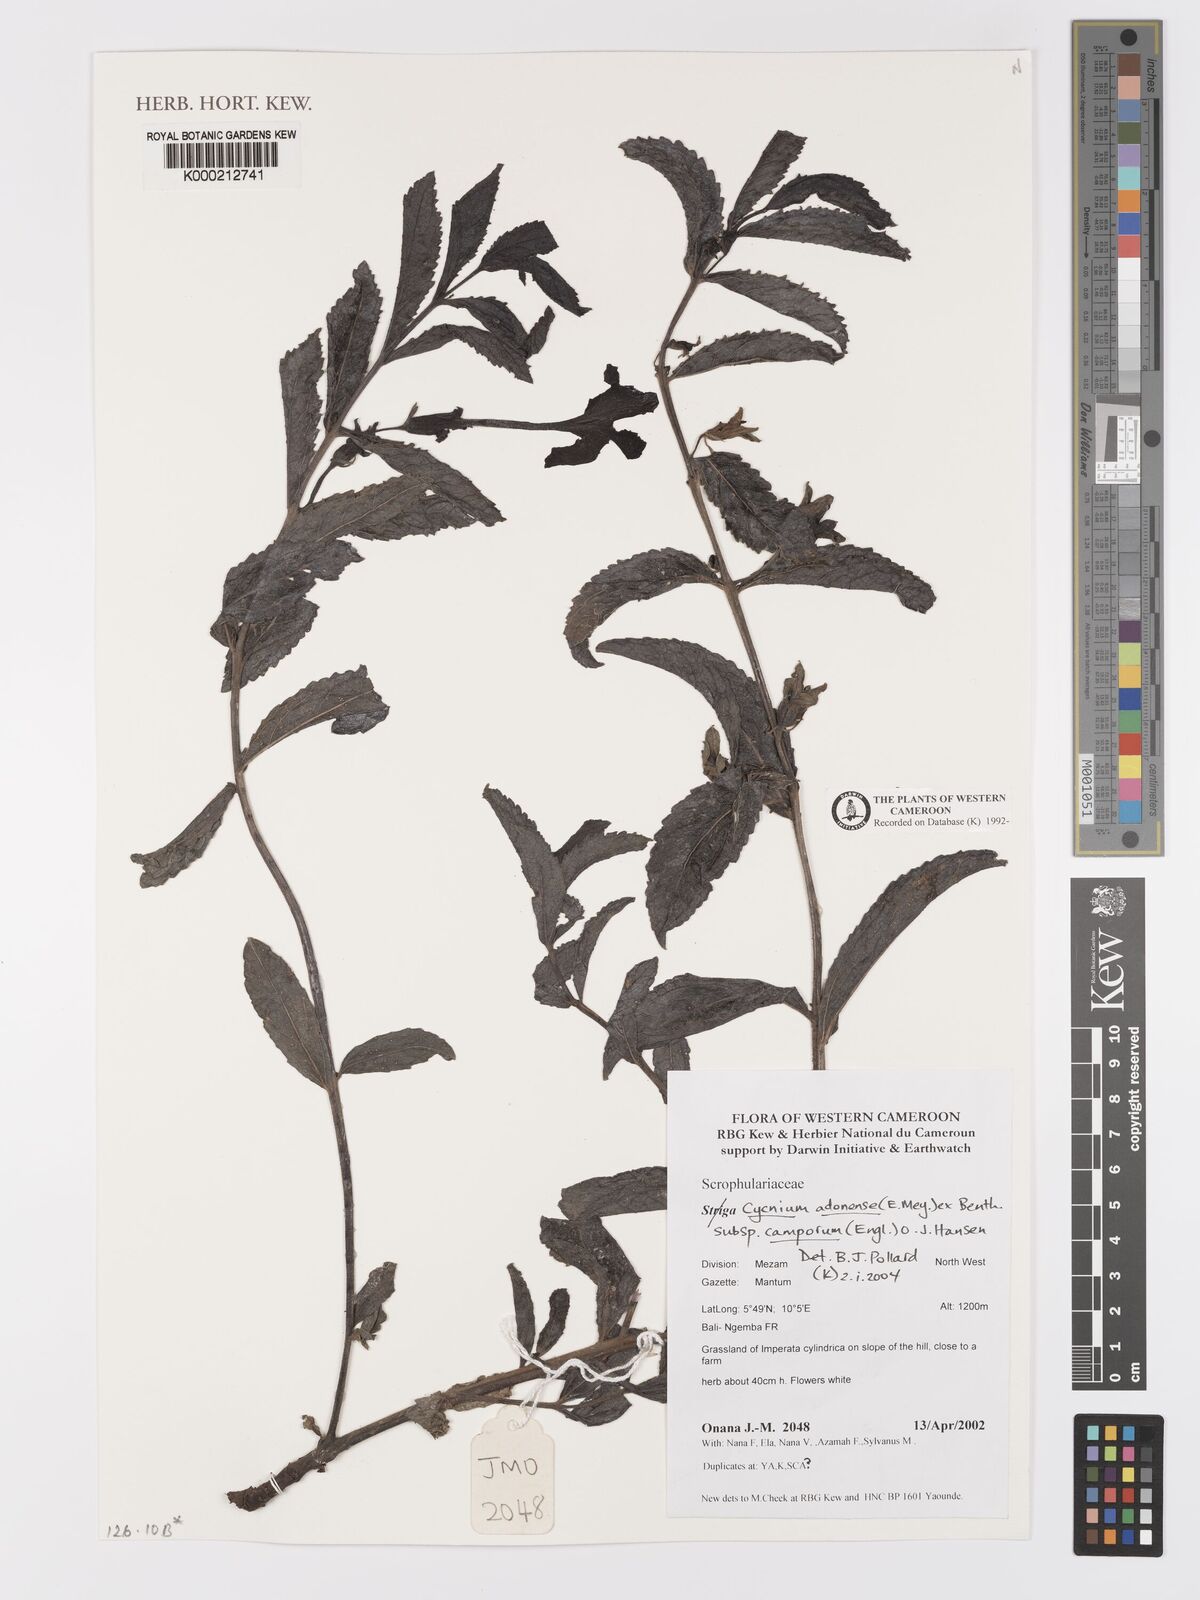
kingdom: Plantae
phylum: Tracheophyta
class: Magnoliopsida
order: Lamiales
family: Orobanchaceae
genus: Cycnium
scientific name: Cycnium adoense
